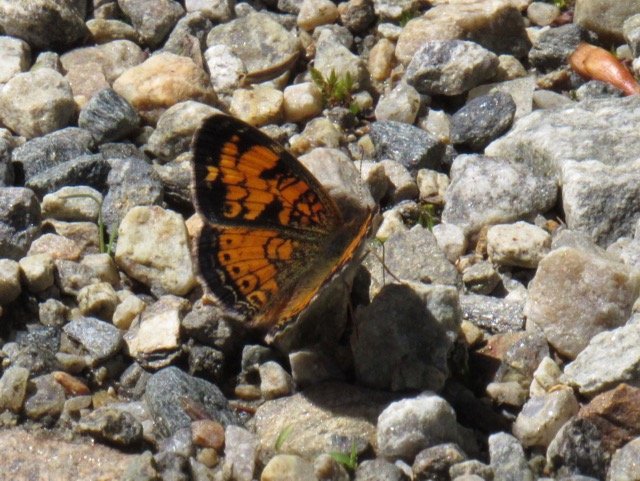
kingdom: Animalia
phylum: Arthropoda
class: Insecta
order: Lepidoptera
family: Nymphalidae
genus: Phyciodes
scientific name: Phyciodes tharos
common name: Pearl Crescent
